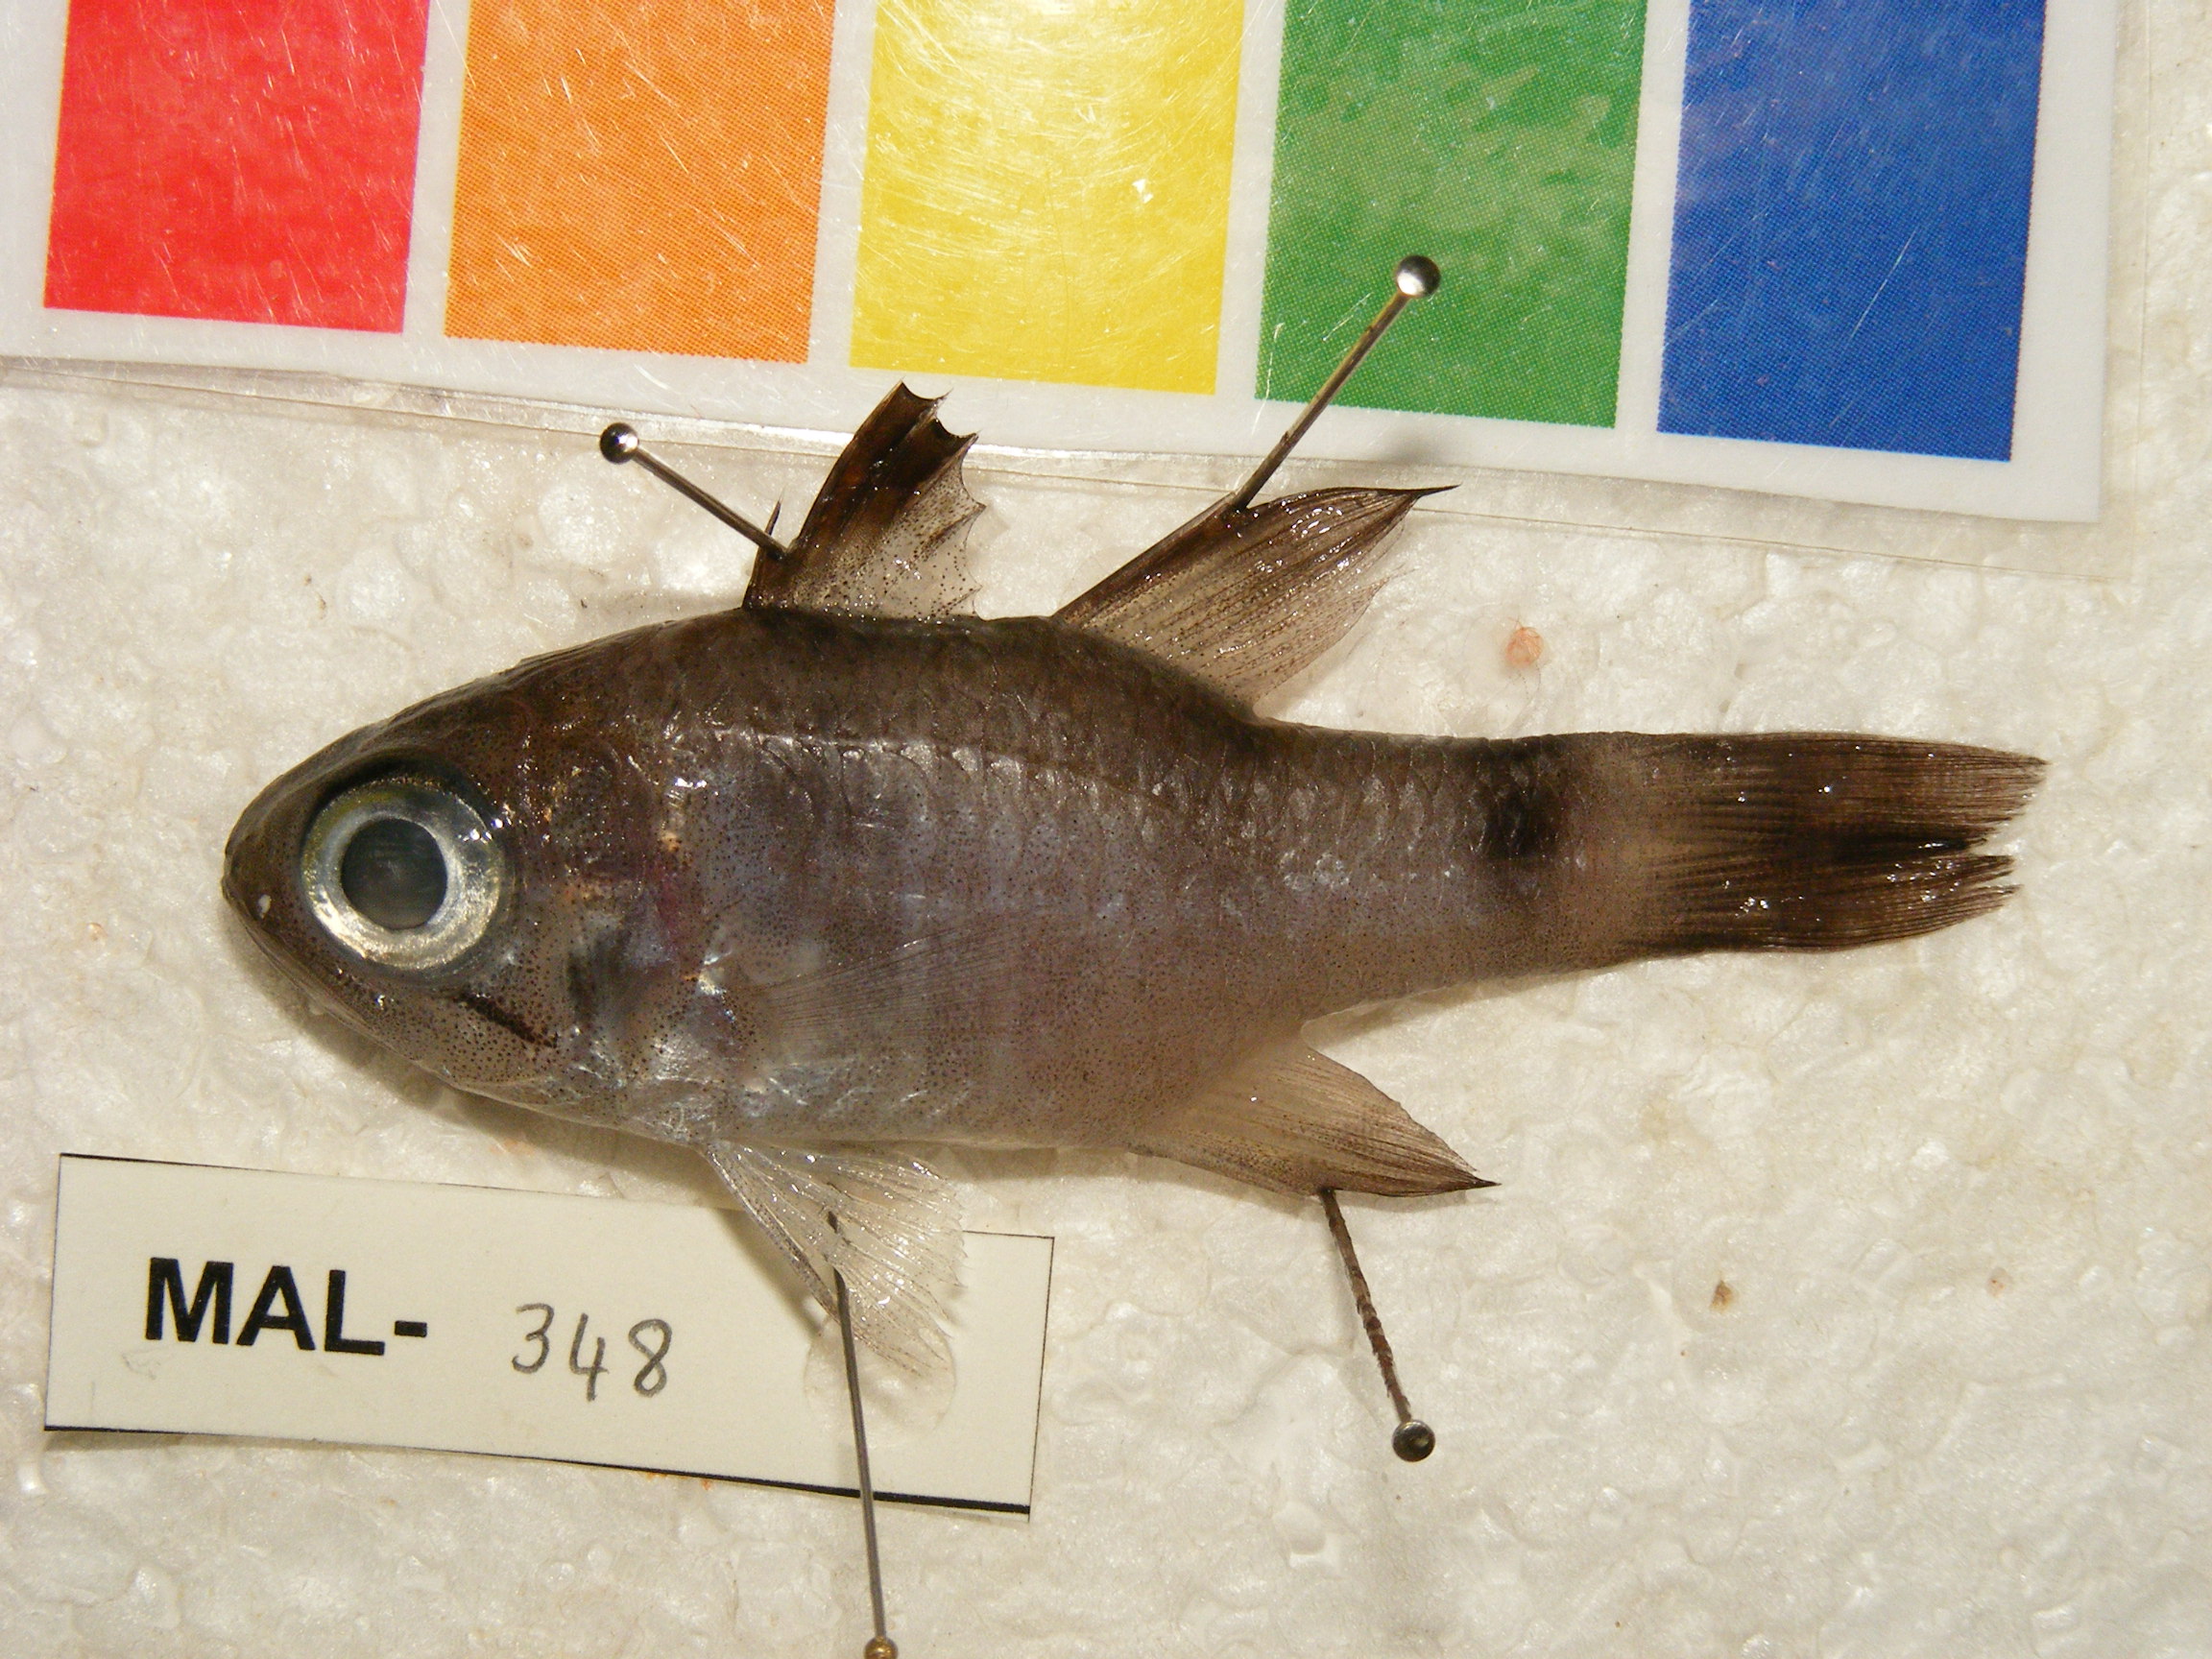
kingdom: Animalia
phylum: Chordata
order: Perciformes
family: Apogonidae
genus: Nectamia
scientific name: Nectamia savayensis
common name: Samoan cardinalfish
